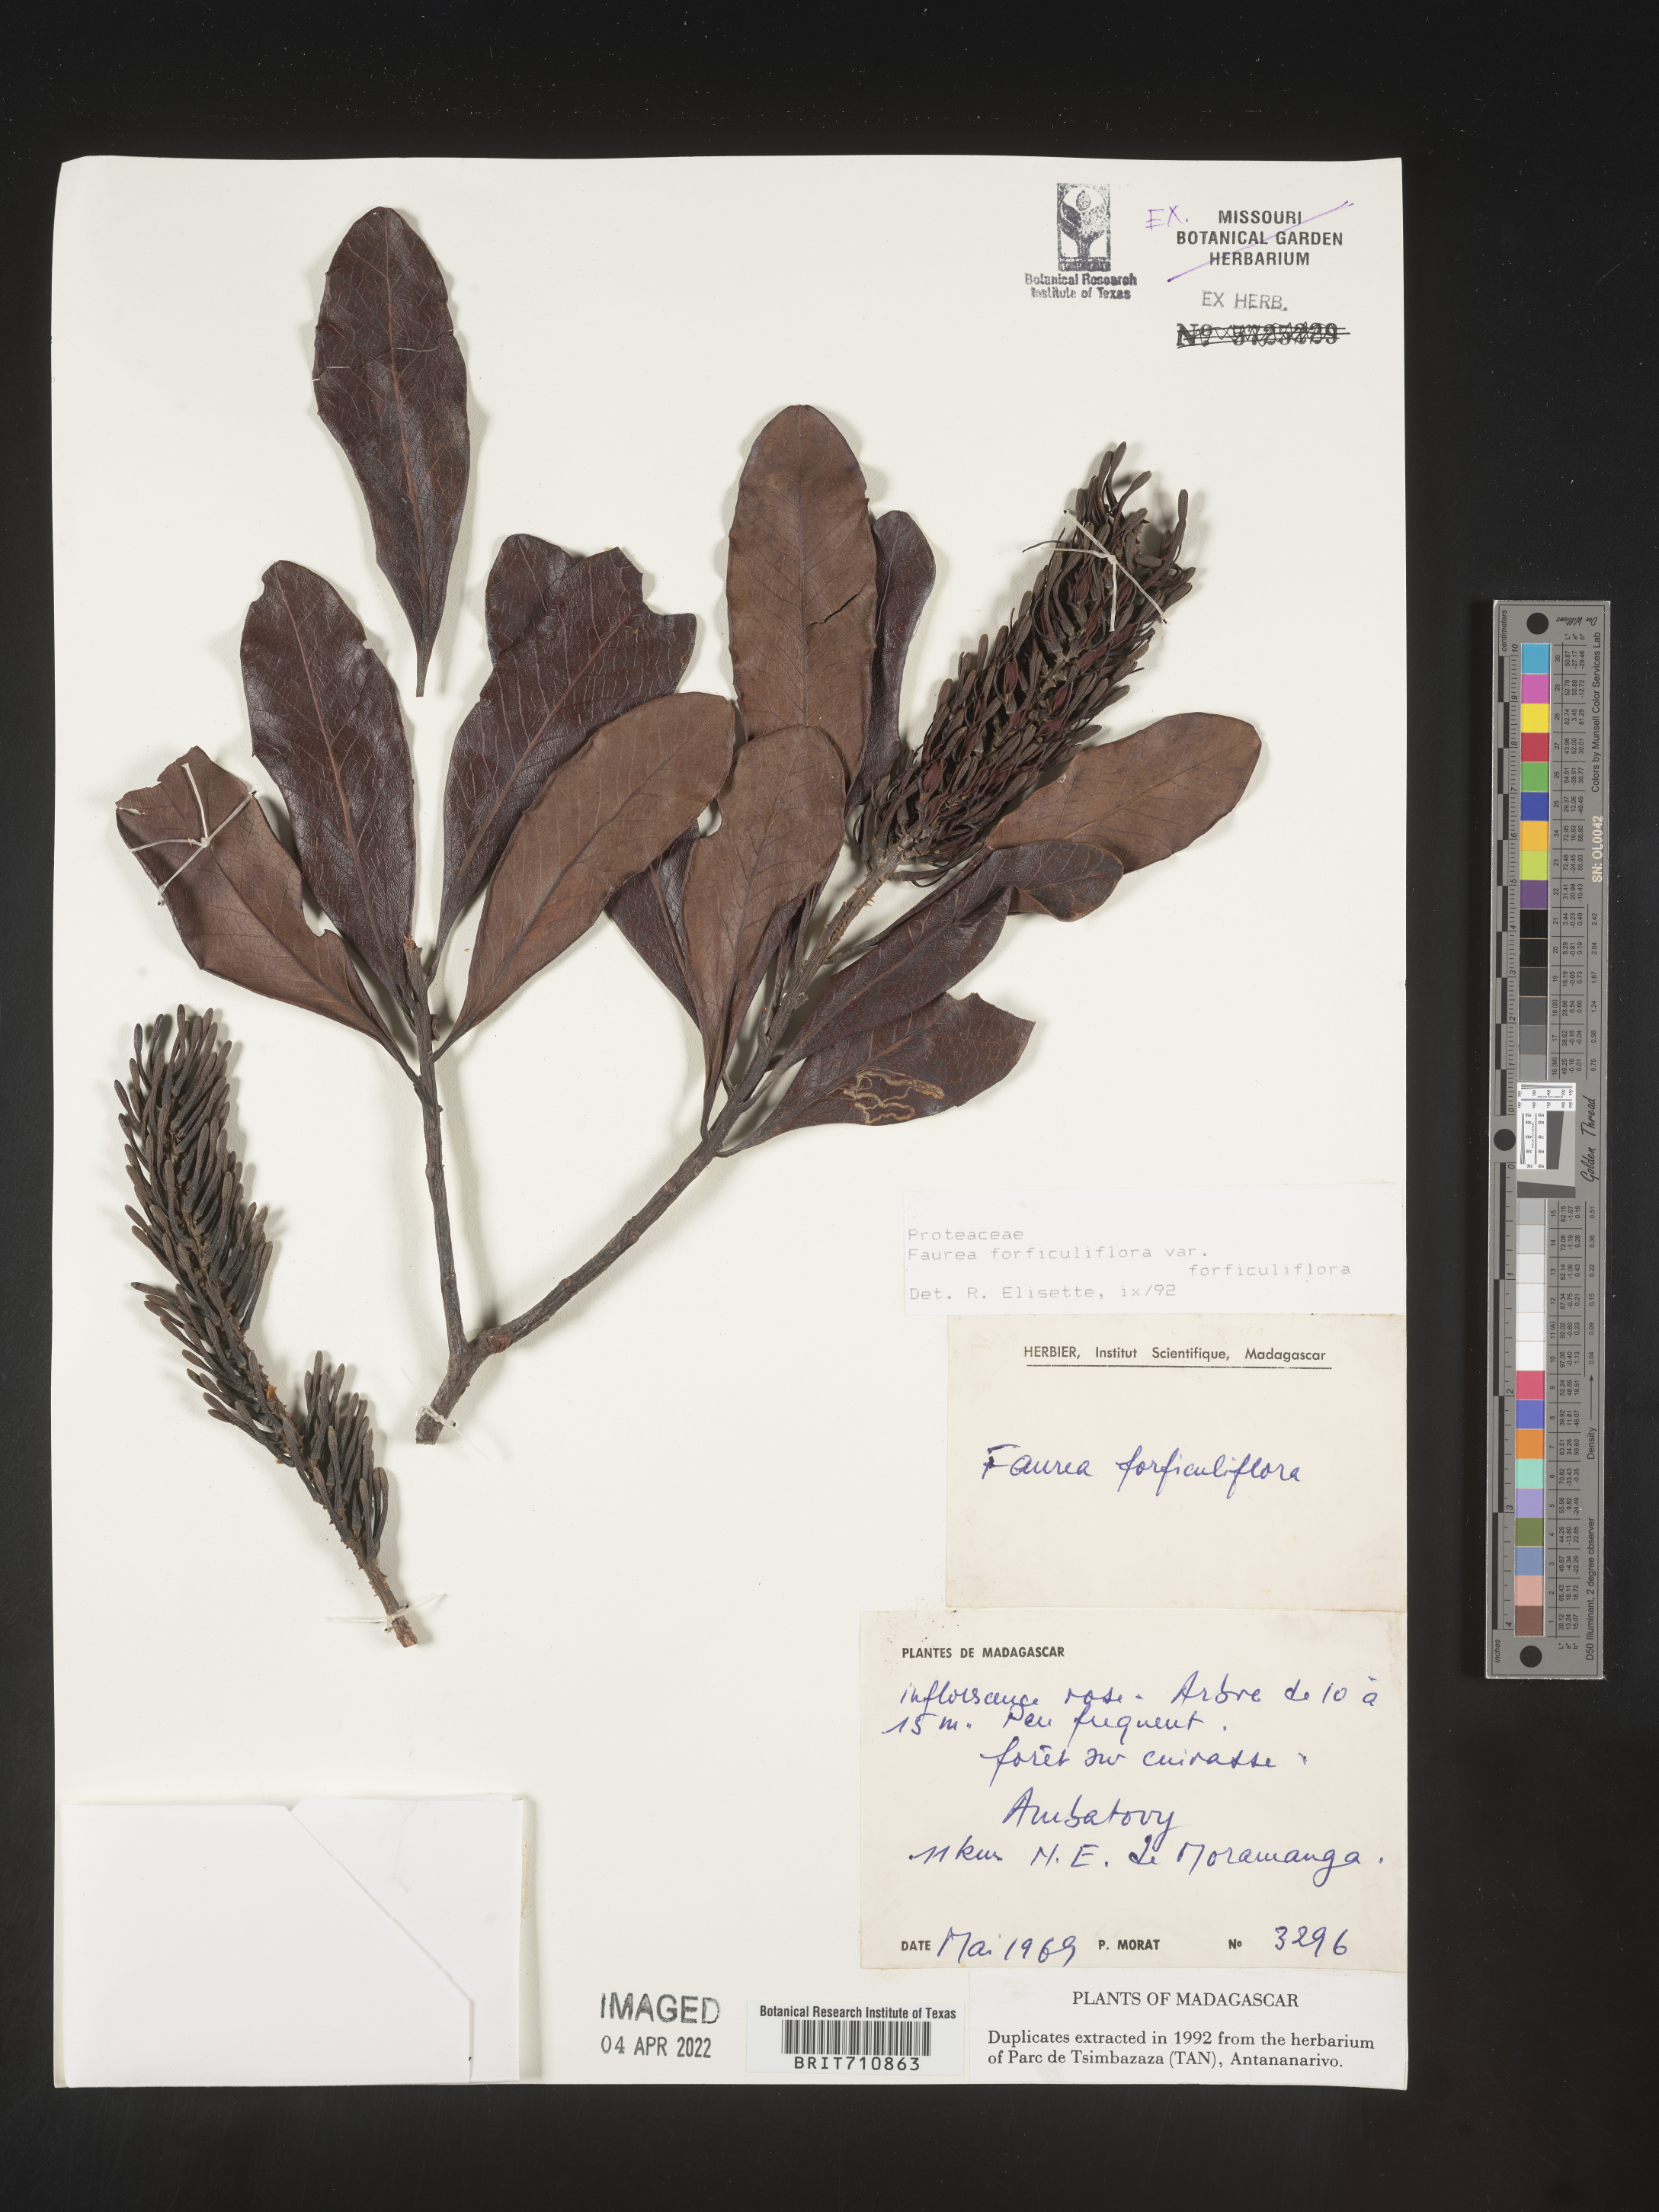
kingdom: Plantae
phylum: Tracheophyta
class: Magnoliopsida
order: Proteales
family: Proteaceae
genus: Faurea
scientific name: Faurea
